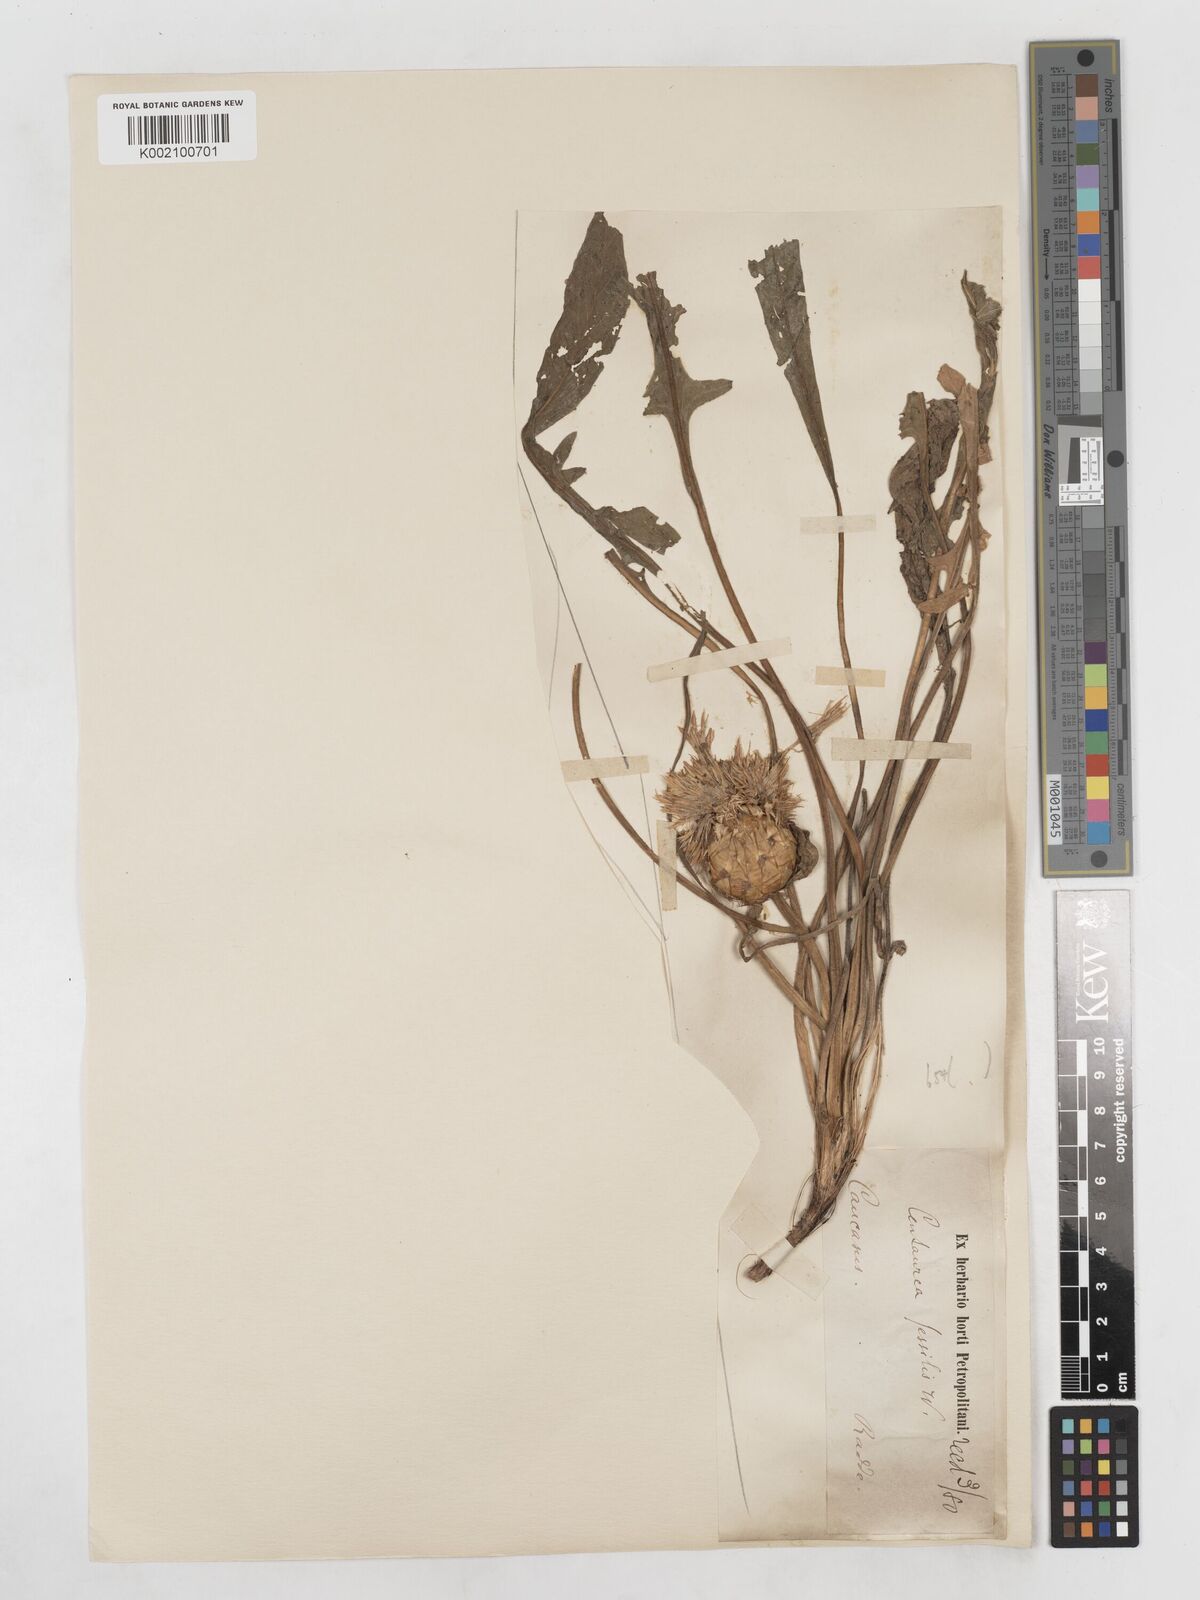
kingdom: Plantae
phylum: Tracheophyta
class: Magnoliopsida
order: Asterales
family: Asteraceae
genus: Centaurea
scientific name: Centaurea rhizantha
